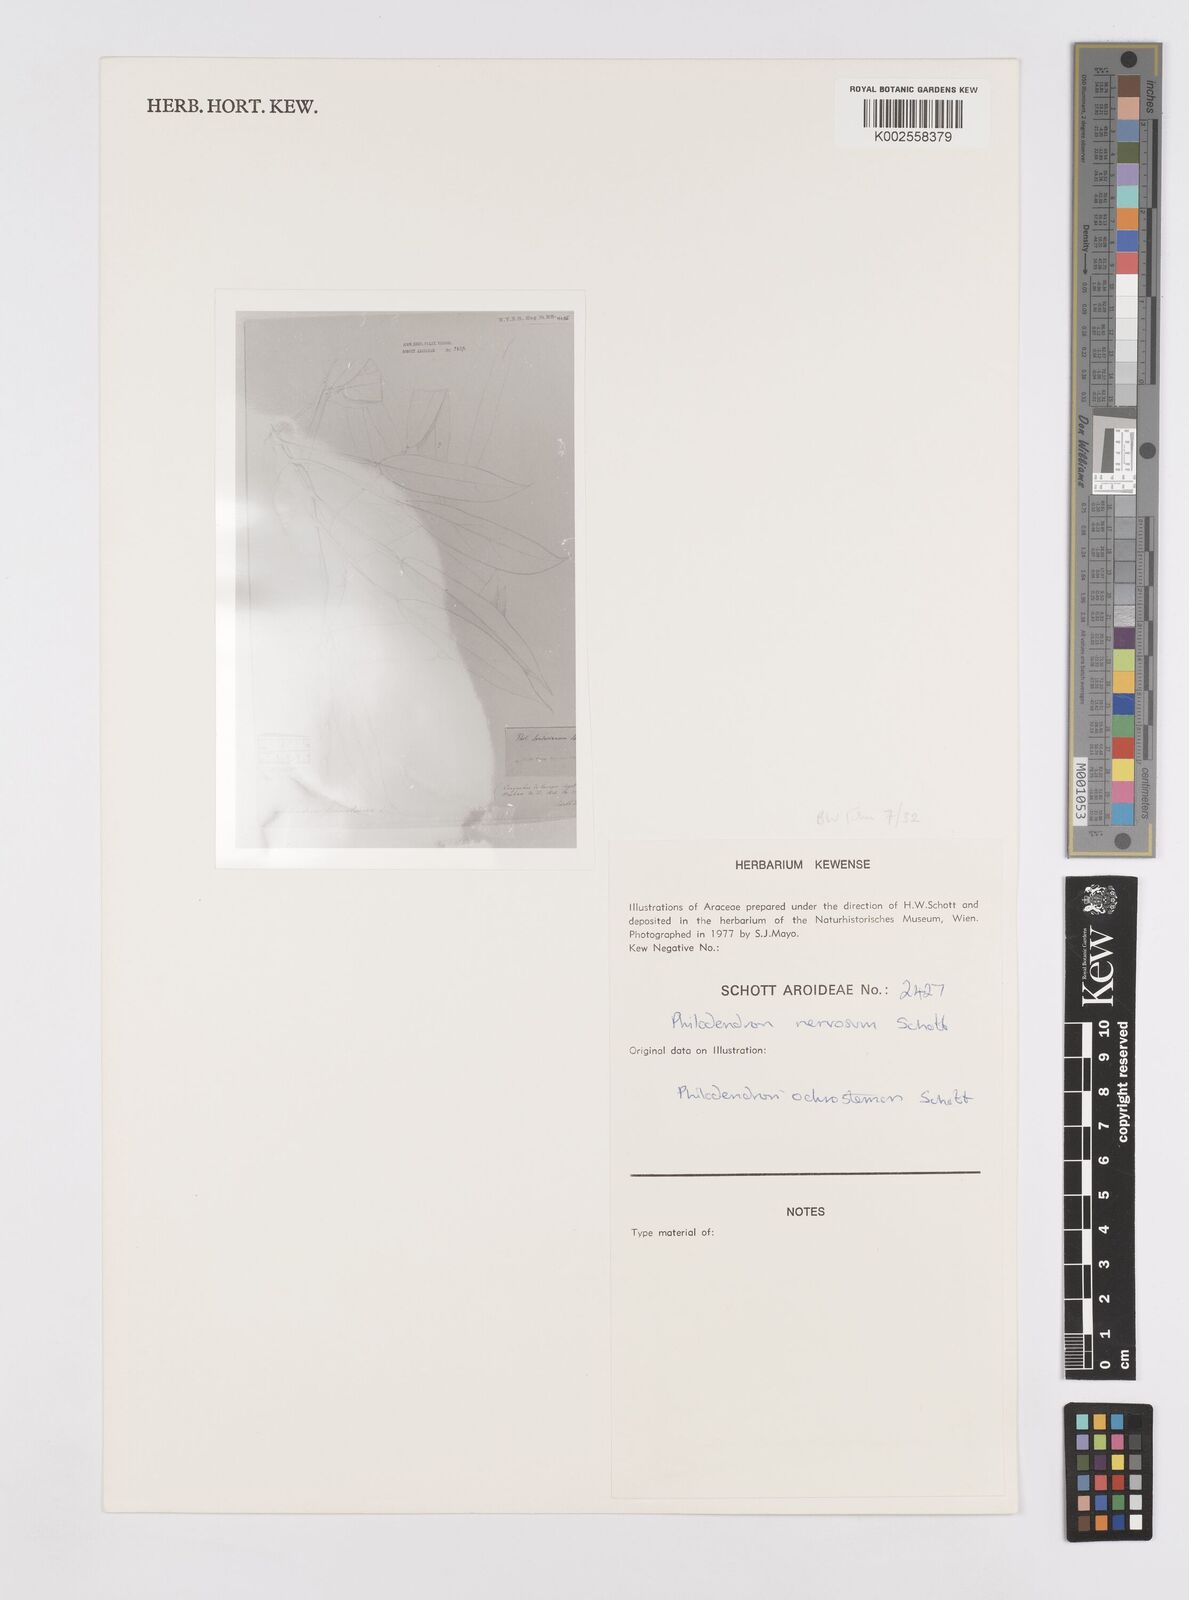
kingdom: Plantae
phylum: Tracheophyta
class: Liliopsida
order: Alismatales
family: Araceae
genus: Philodendron
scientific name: Philodendron ochrostemon
